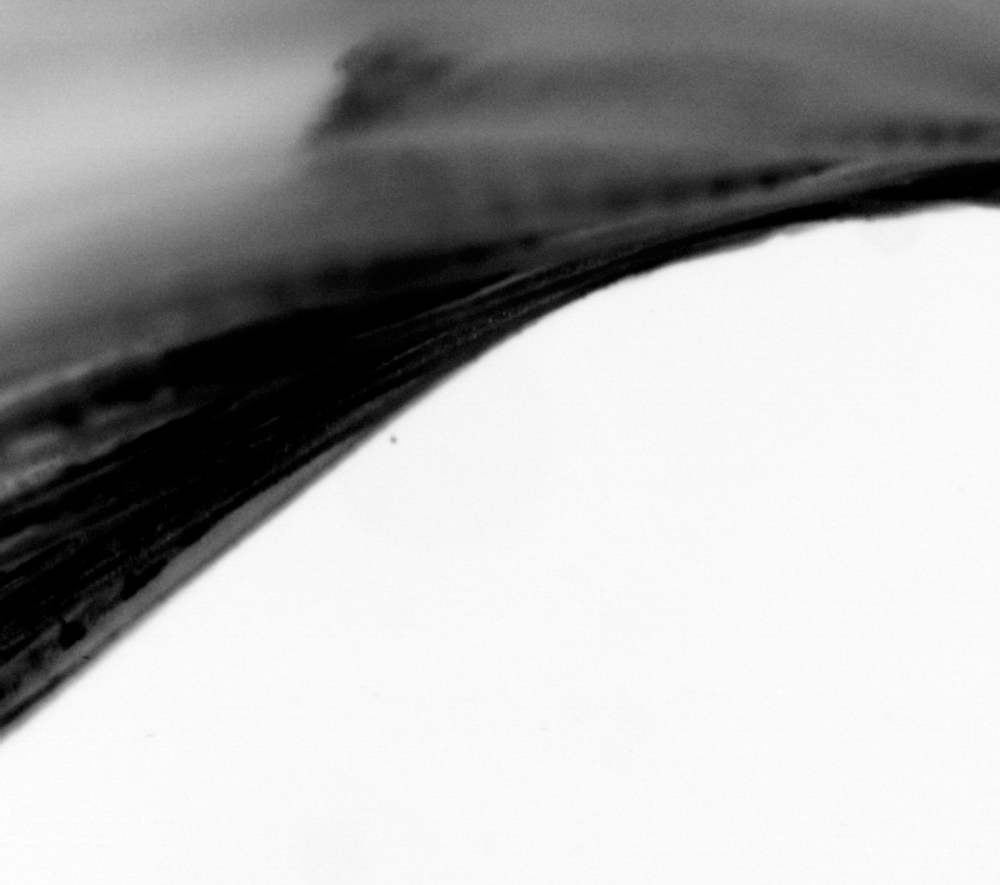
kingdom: Animalia
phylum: Chordata
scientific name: Chordata
